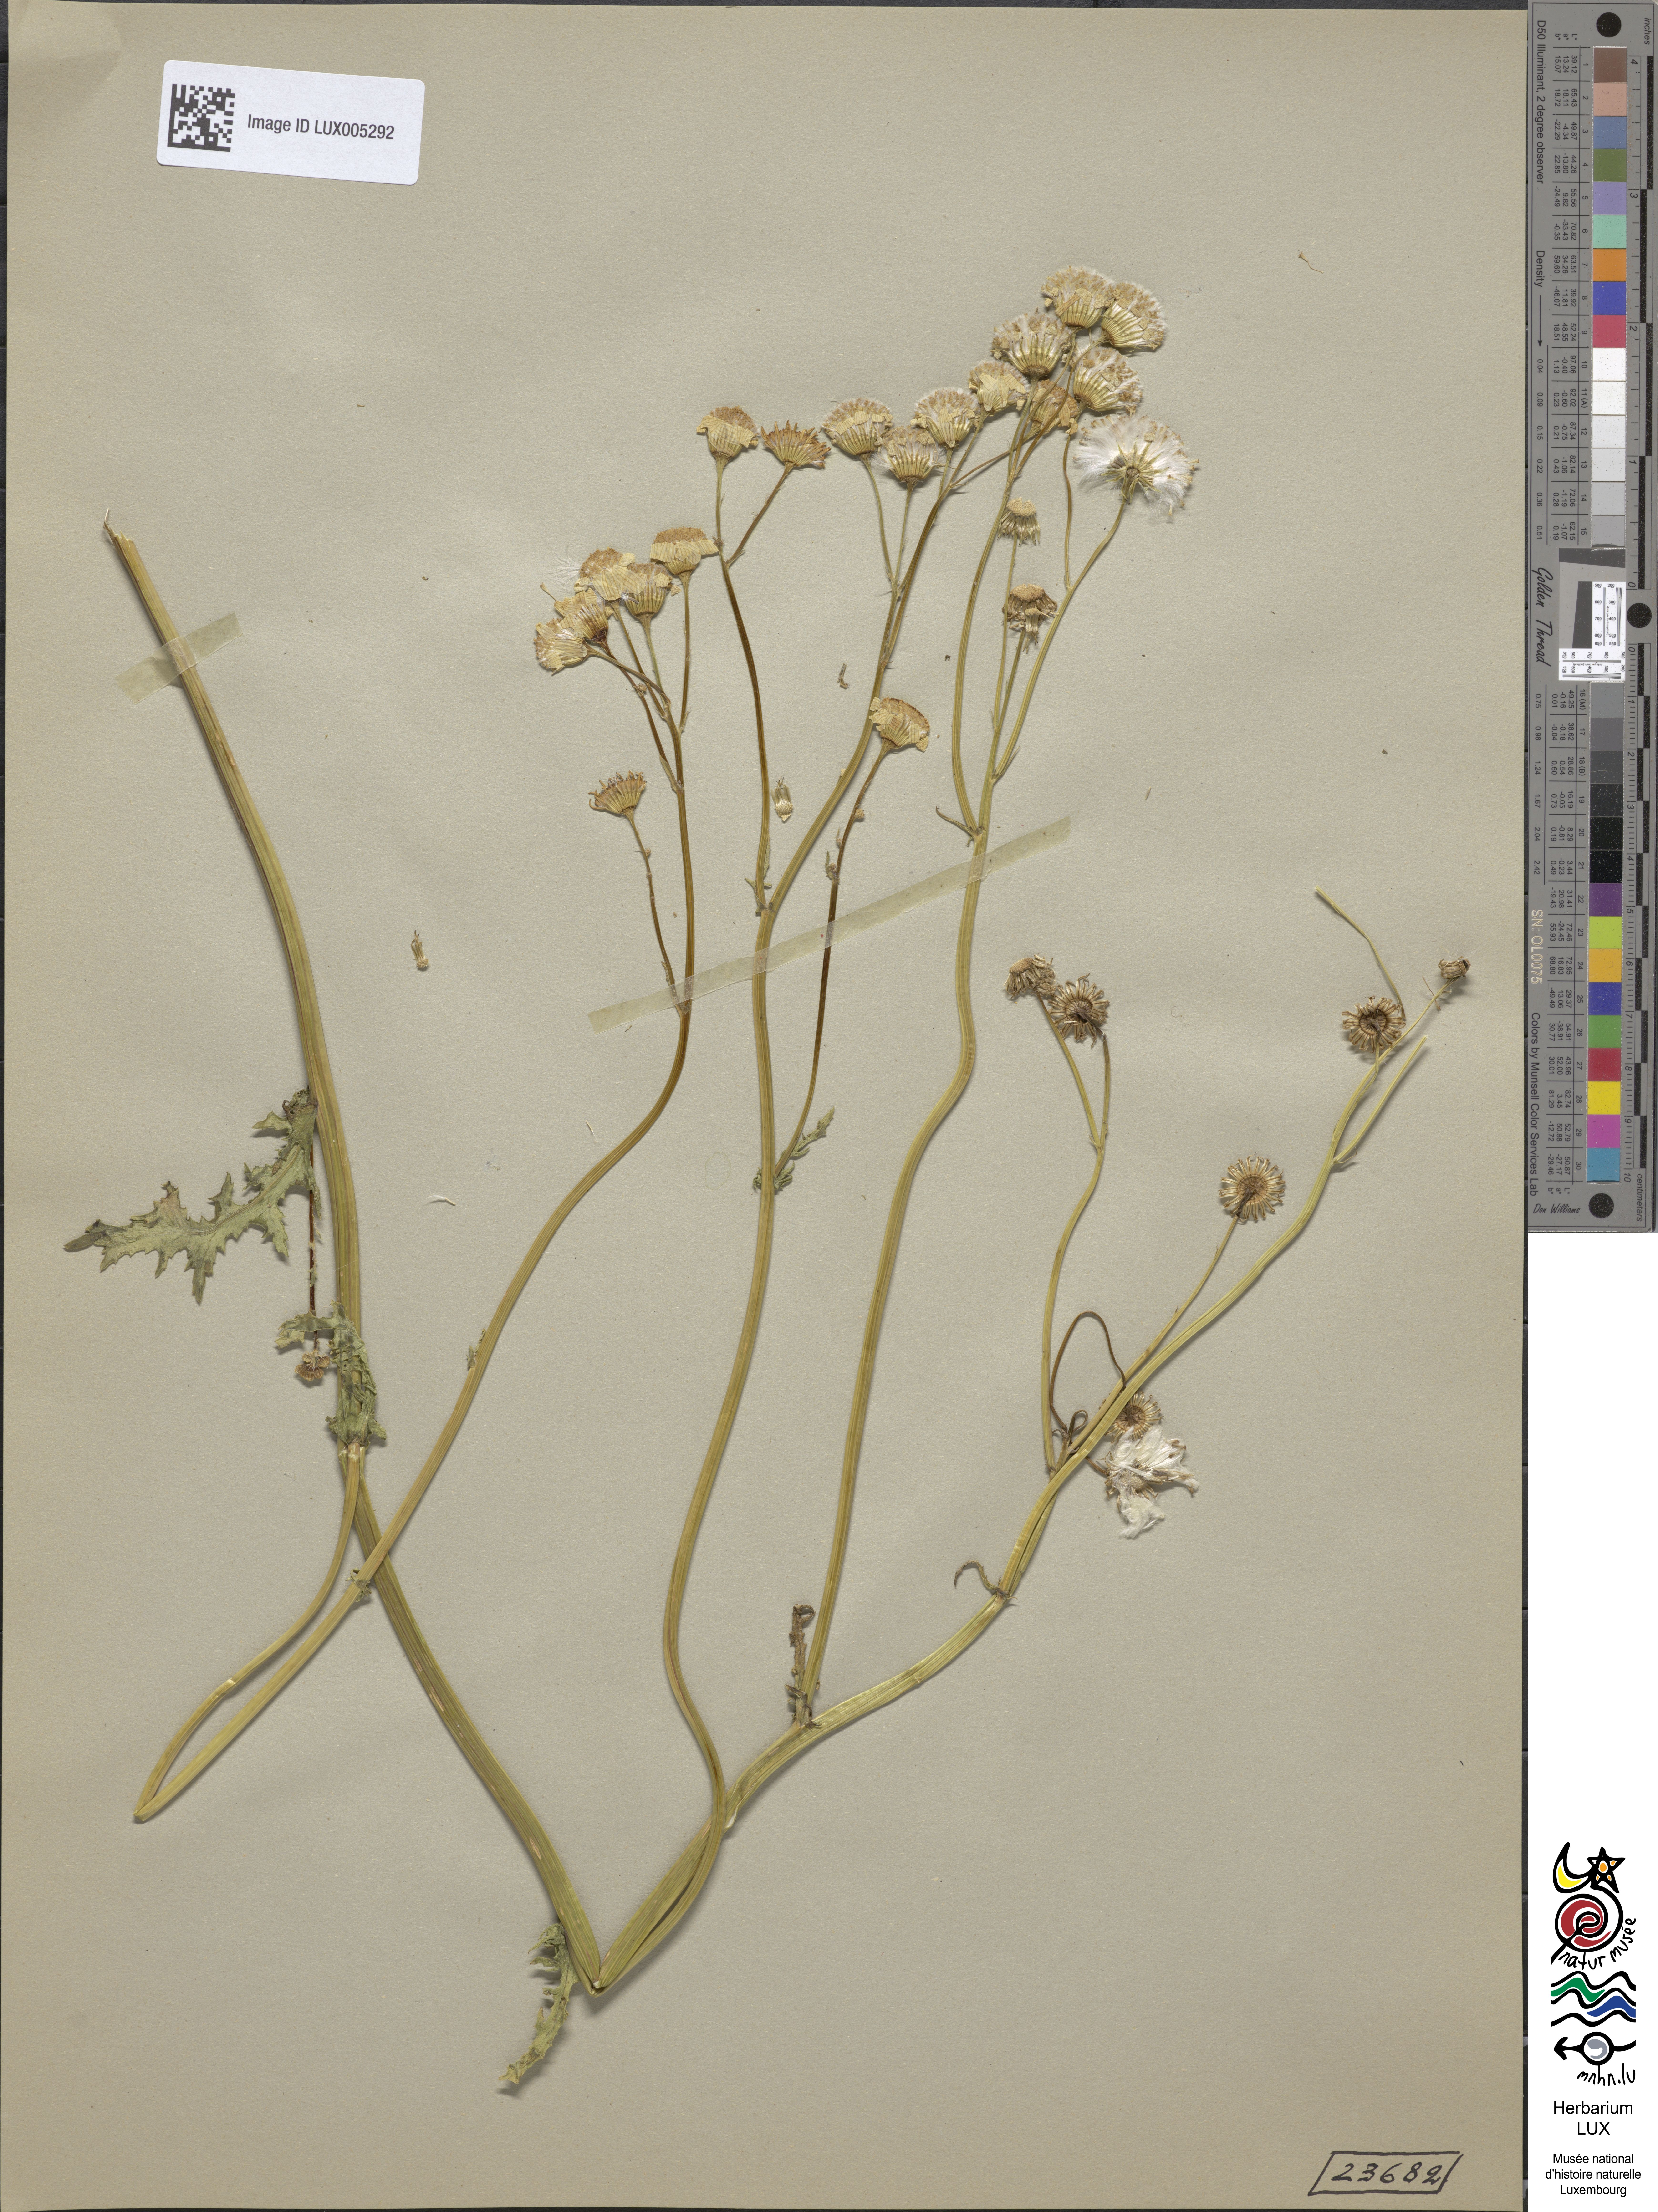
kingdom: Plantae
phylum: Tracheophyta
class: Magnoliopsida
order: Asterales
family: Asteraceae
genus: Senecio
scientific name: Senecio vernalis
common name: Eastern groundsel
